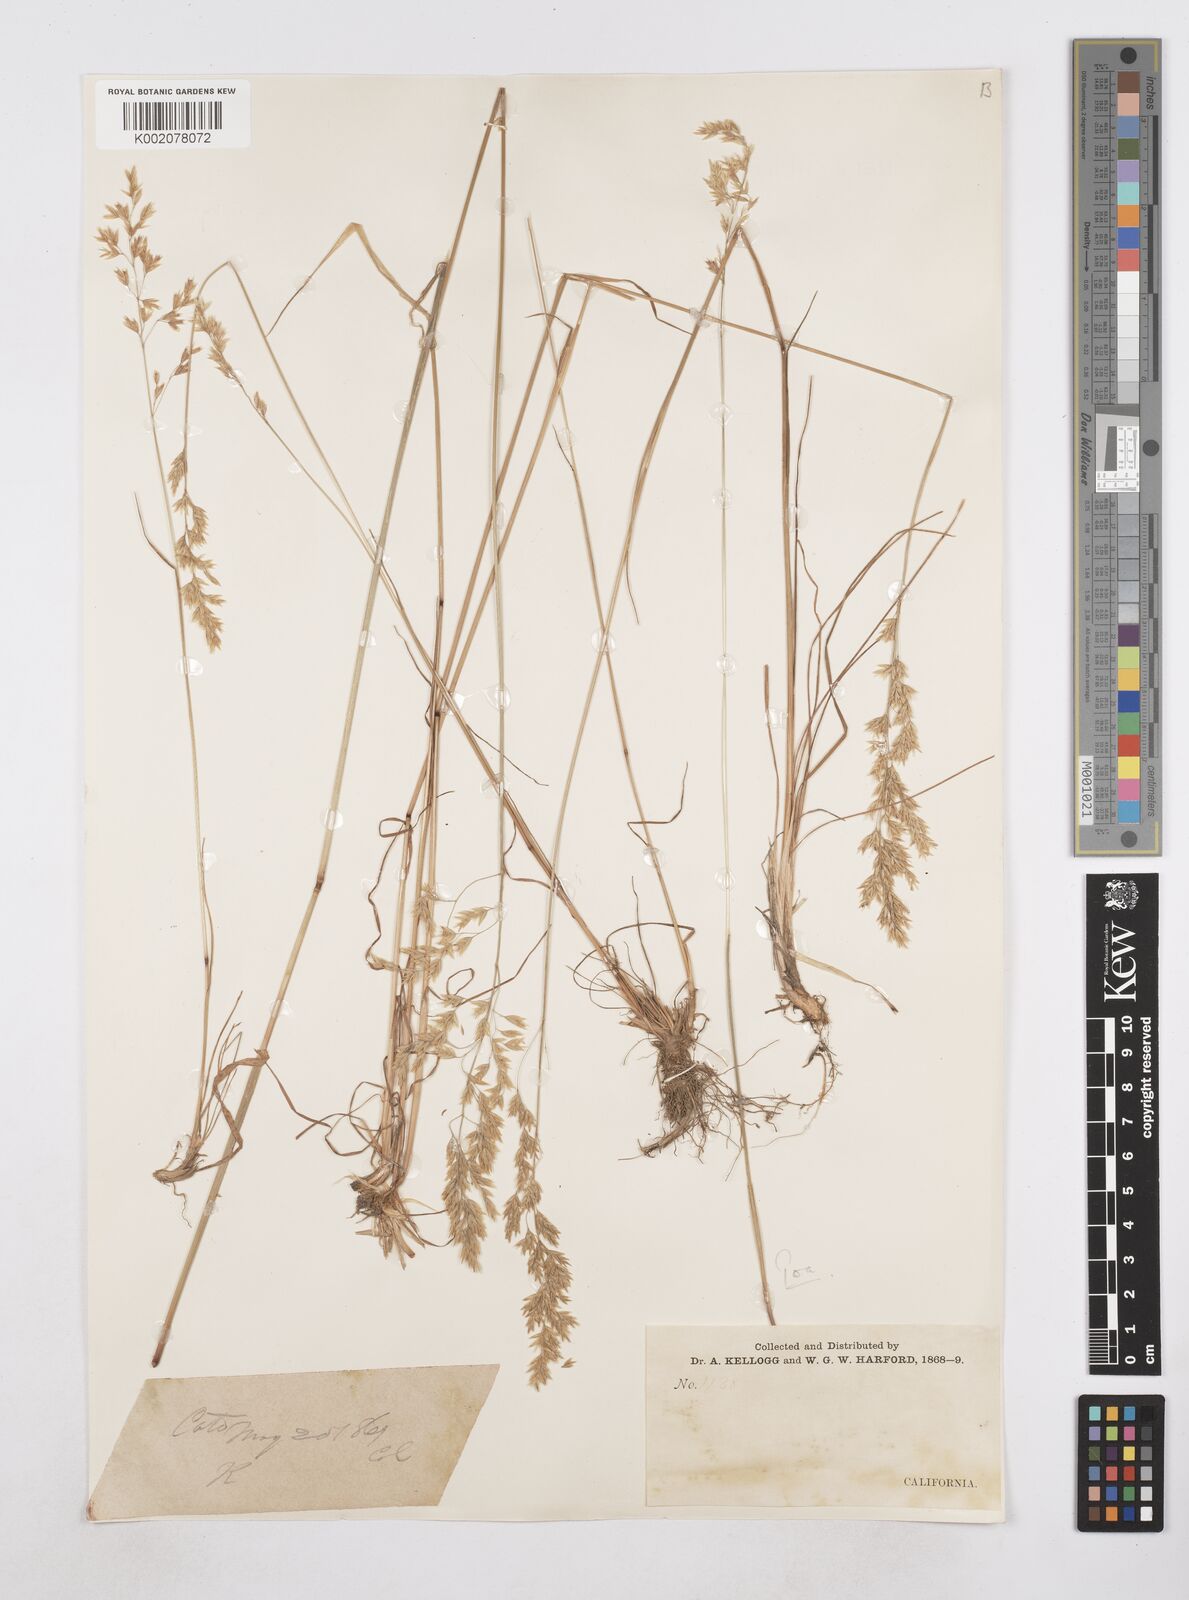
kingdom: Plantae
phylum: Tracheophyta
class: Liliopsida
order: Poales
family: Poaceae
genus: Poa
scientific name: Poa
